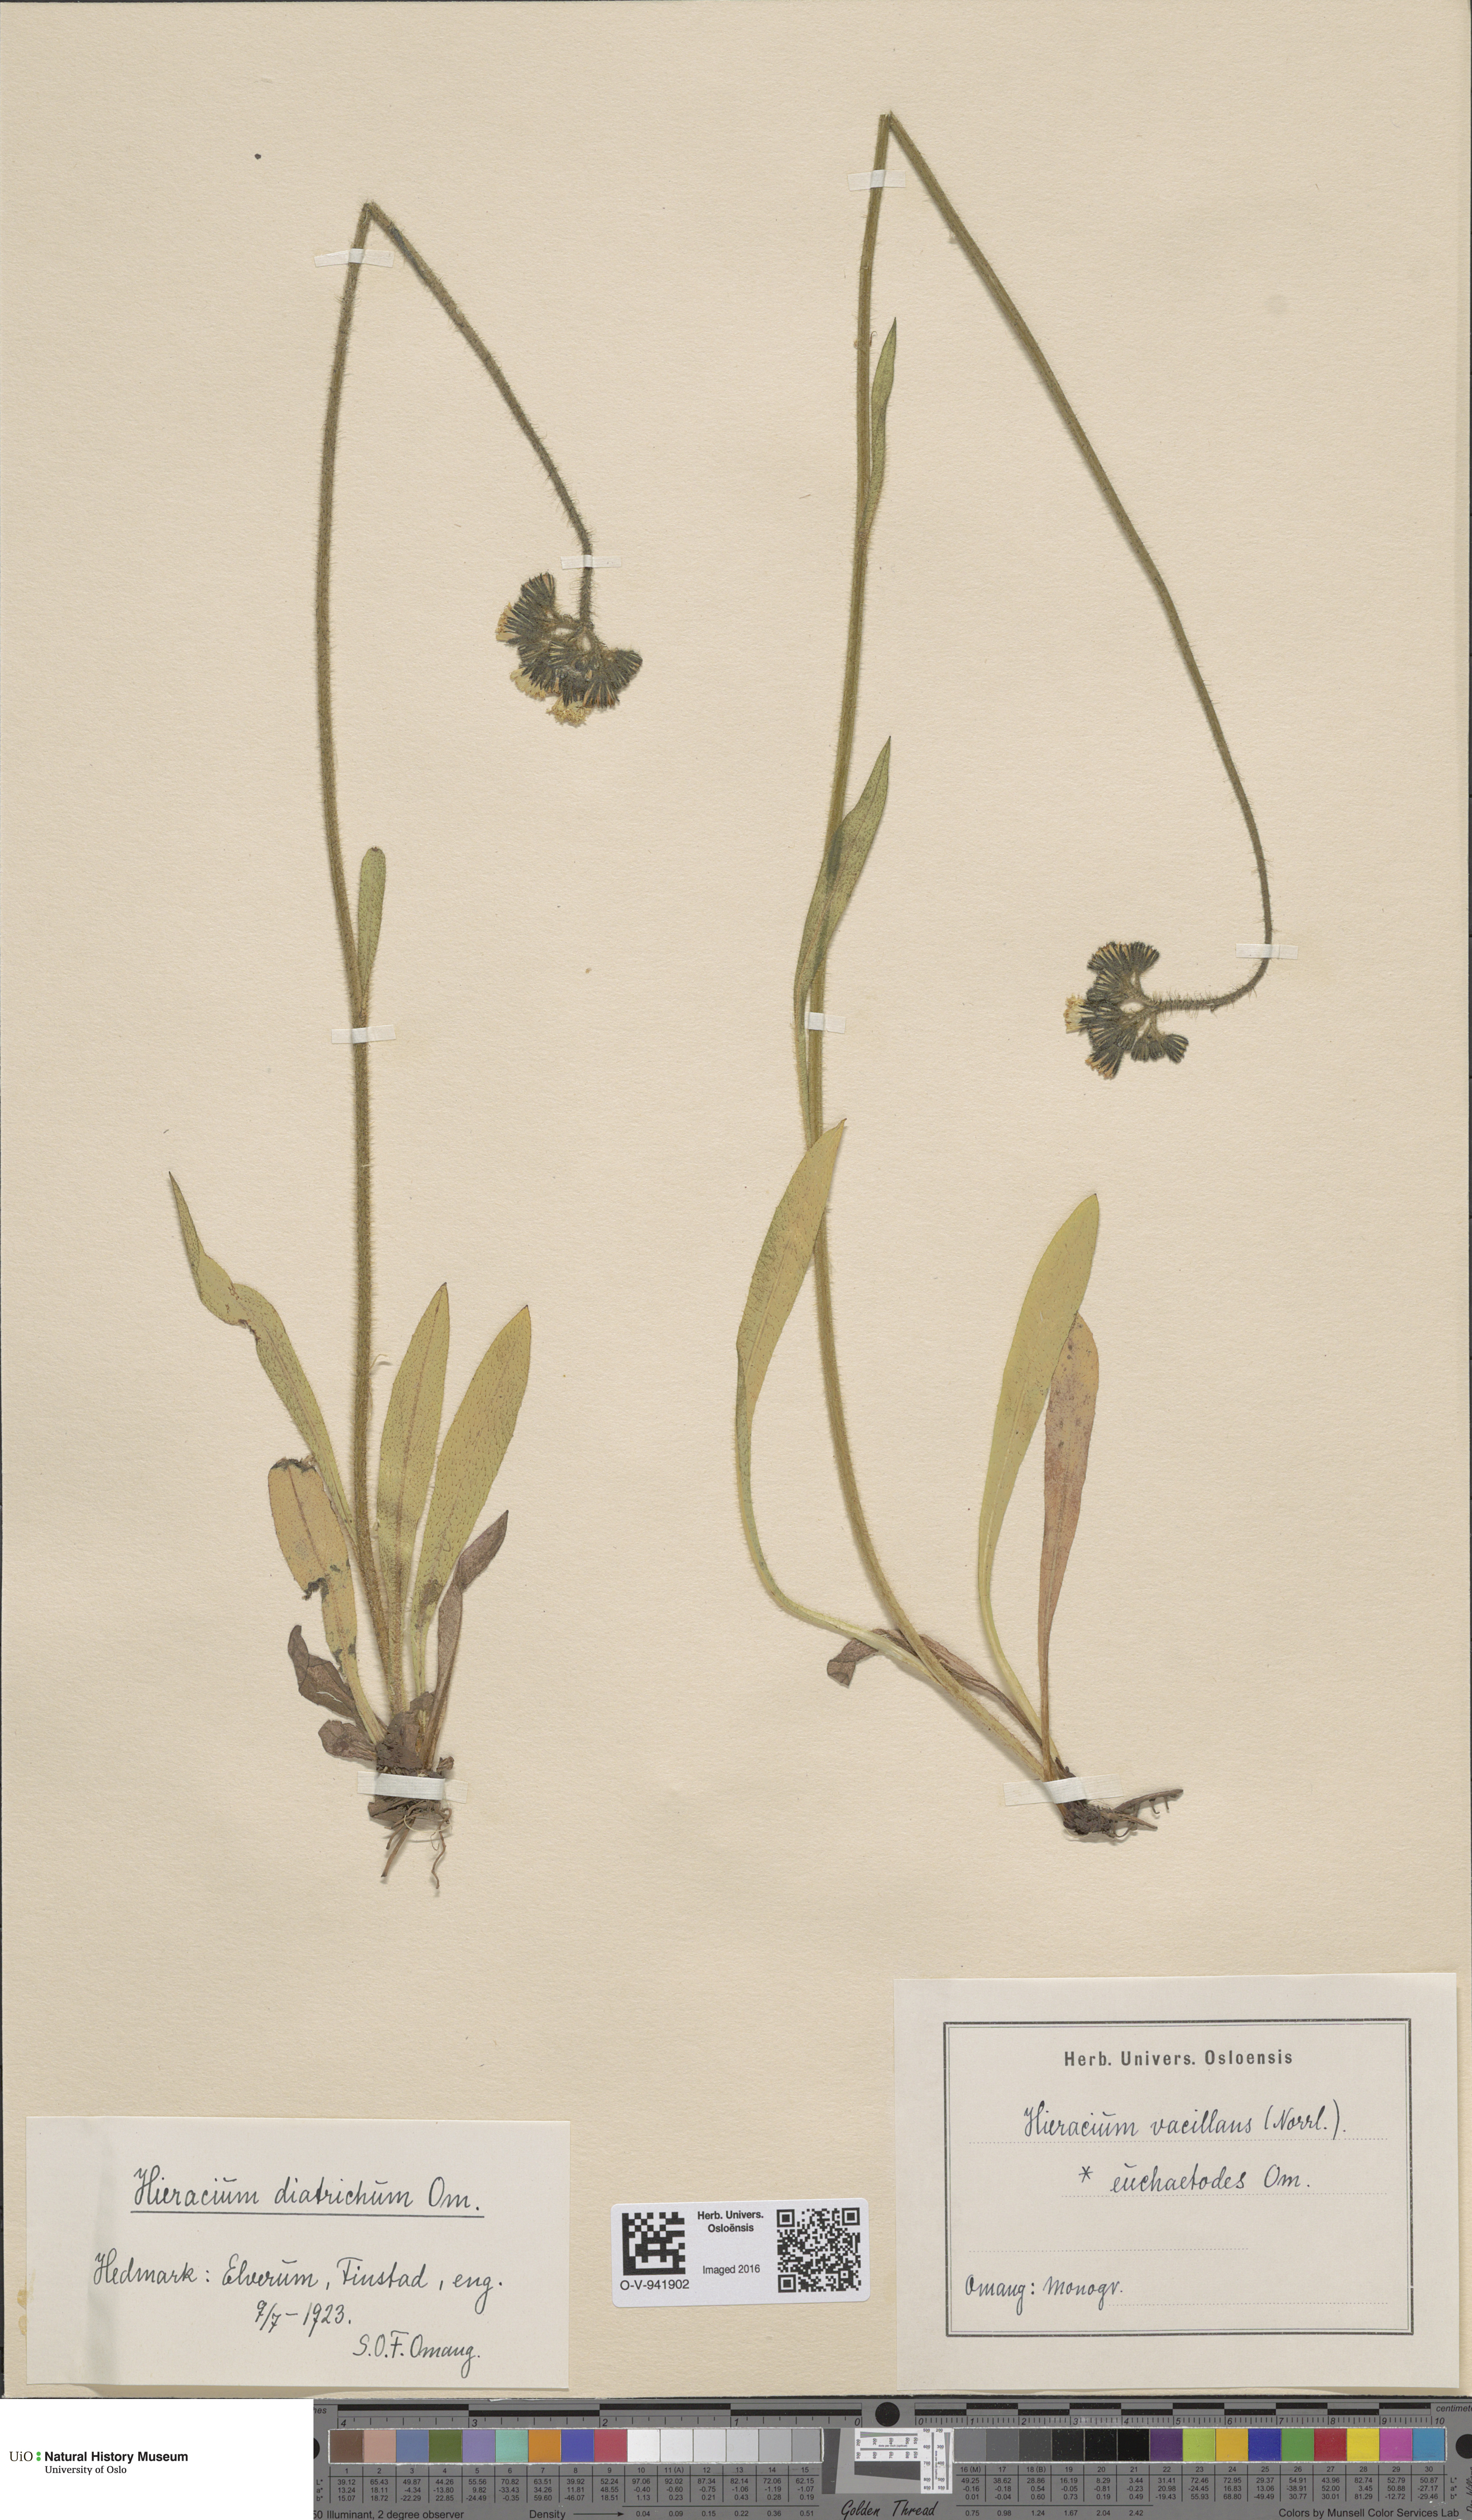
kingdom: Plantae
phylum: Tracheophyta
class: Magnoliopsida
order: Asterales
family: Asteraceae
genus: Pilosella
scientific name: Pilosella glomerata
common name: Queen devil hawkweed
